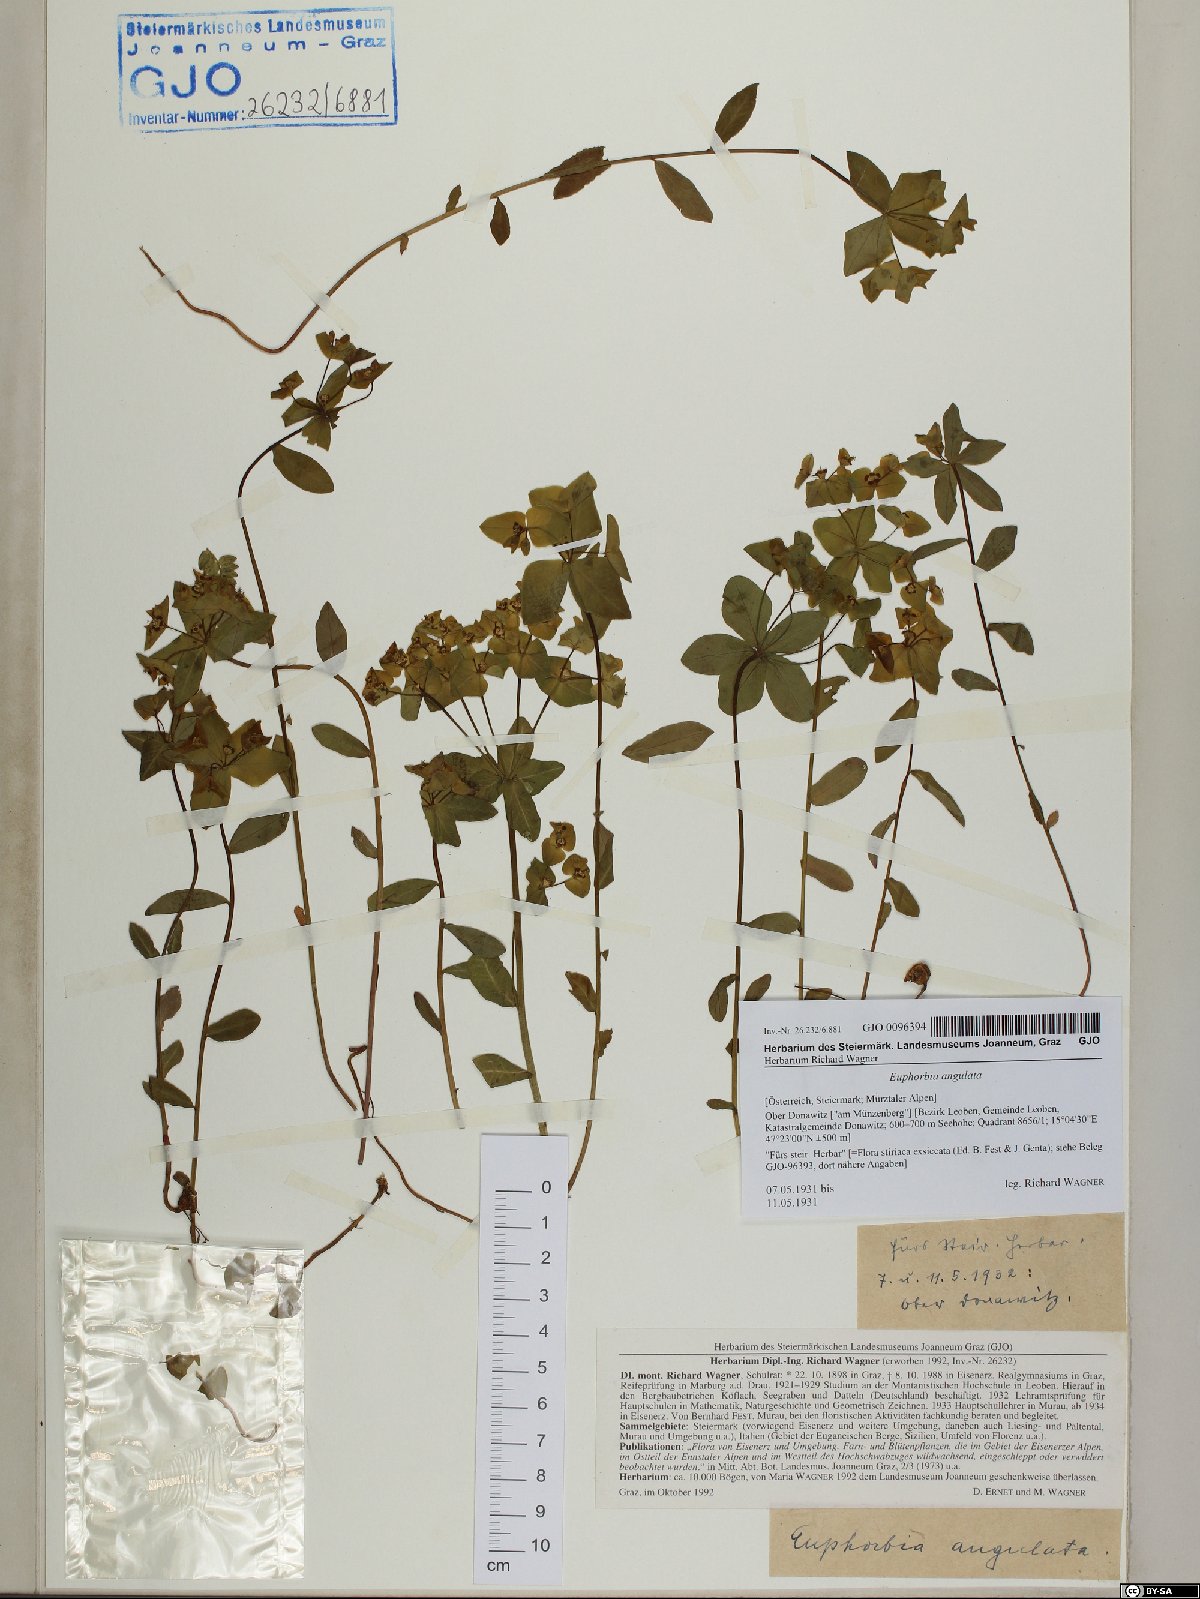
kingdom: Plantae
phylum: Tracheophyta
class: Magnoliopsida
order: Malpighiales
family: Euphorbiaceae
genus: Euphorbia
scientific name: Euphorbia angulata
